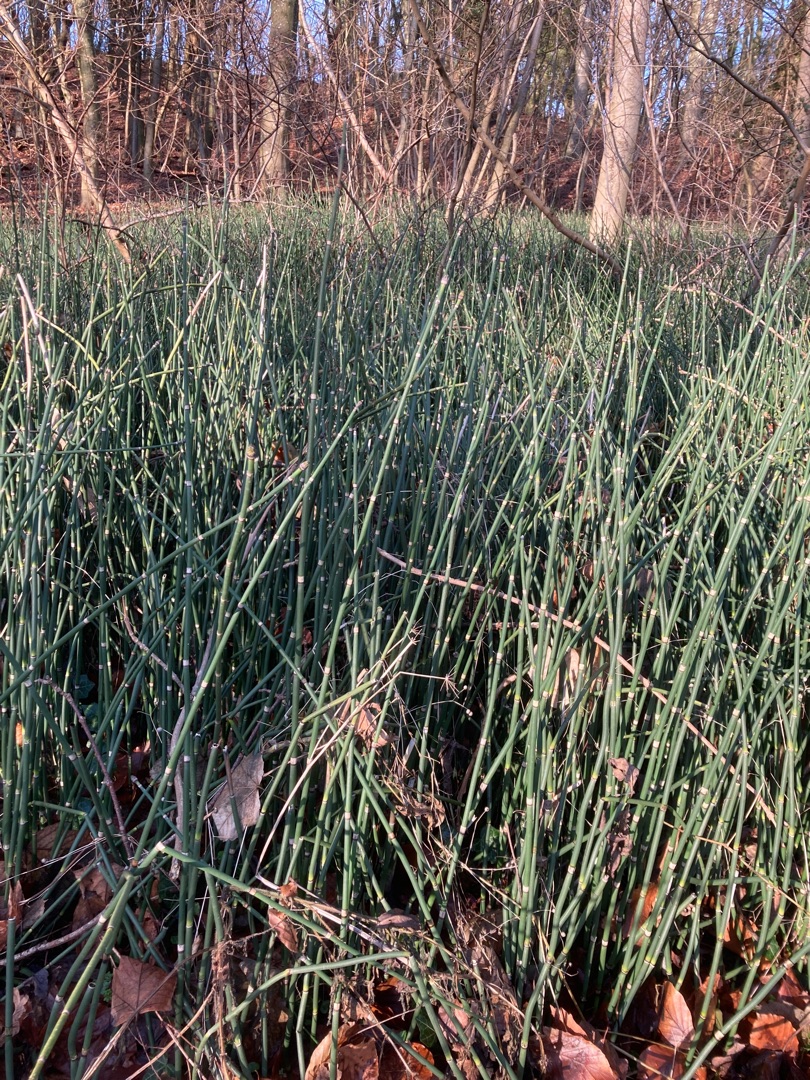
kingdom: Plantae
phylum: Tracheophyta
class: Polypodiopsida
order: Equisetales
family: Equisetaceae
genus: Equisetum
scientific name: Equisetum hyemale
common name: Skavgræs
